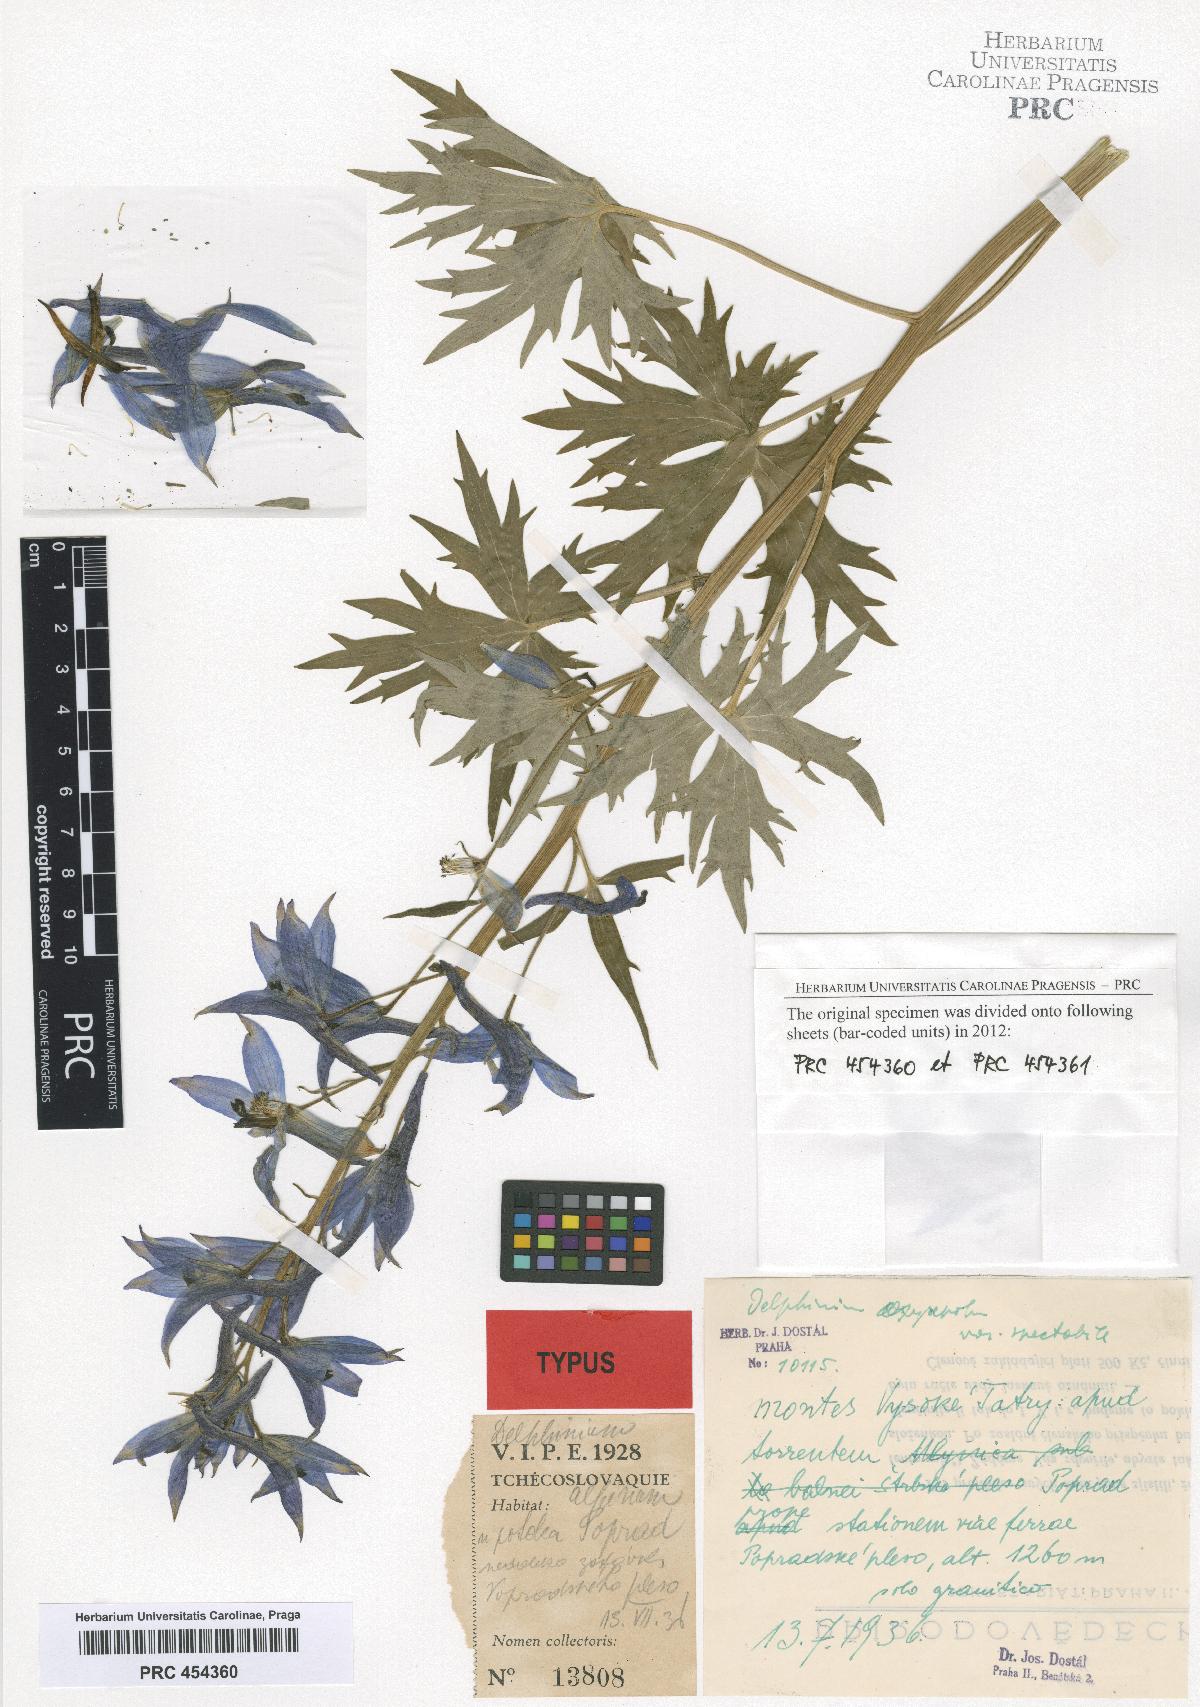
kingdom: Plantae
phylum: Tracheophyta
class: Magnoliopsida
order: Ranunculales
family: Ranunculaceae
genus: Delphinium
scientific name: Delphinium oxysepalum
